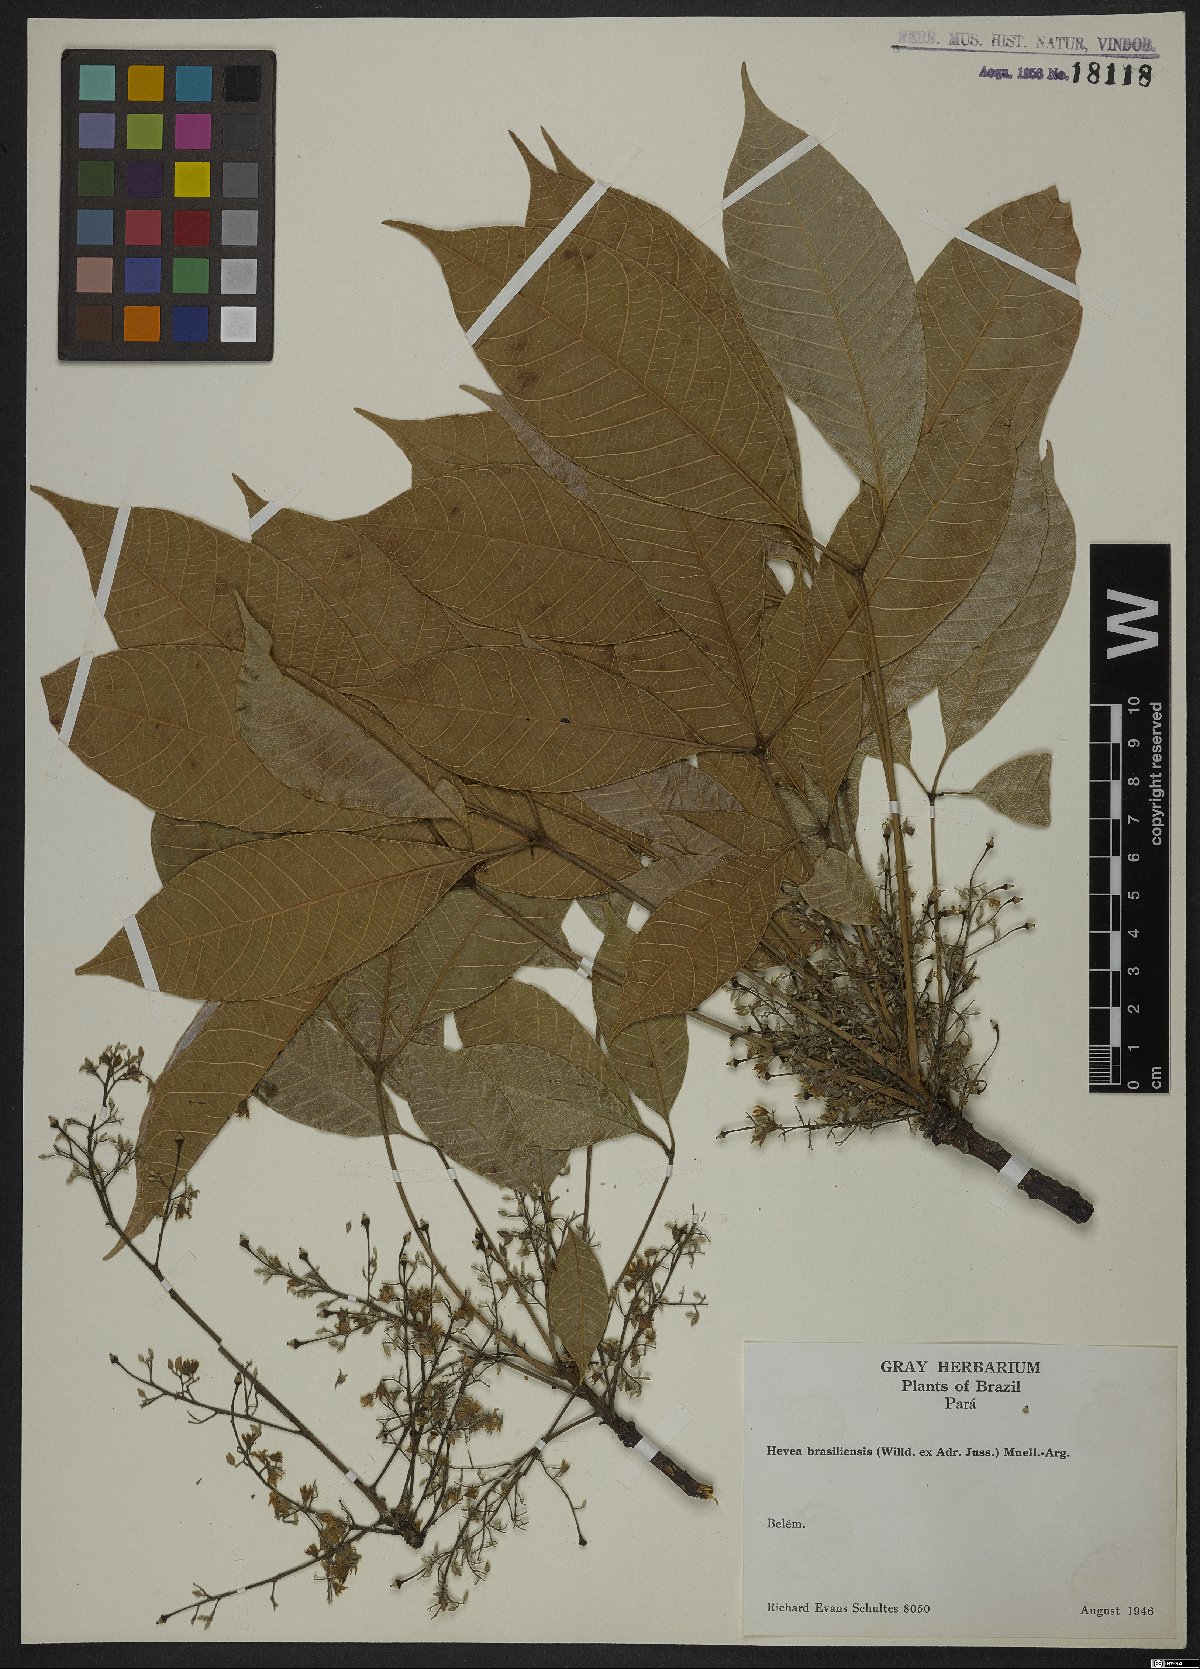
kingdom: Plantae
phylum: Tracheophyta
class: Magnoliopsida
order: Malpighiales
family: Euphorbiaceae
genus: Hevea
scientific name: Hevea brasiliensis
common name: Natural rubber
